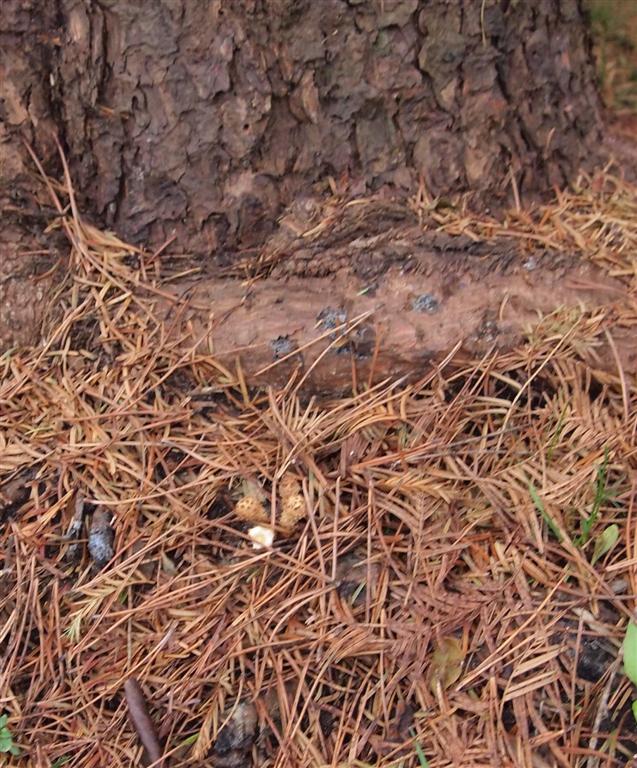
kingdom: Fungi
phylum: Basidiomycota
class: Agaricomycetes
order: Agaricales
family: Strophariaceae
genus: Pholiota
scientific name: Pholiota squarrosa
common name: krumskællet skælhat
